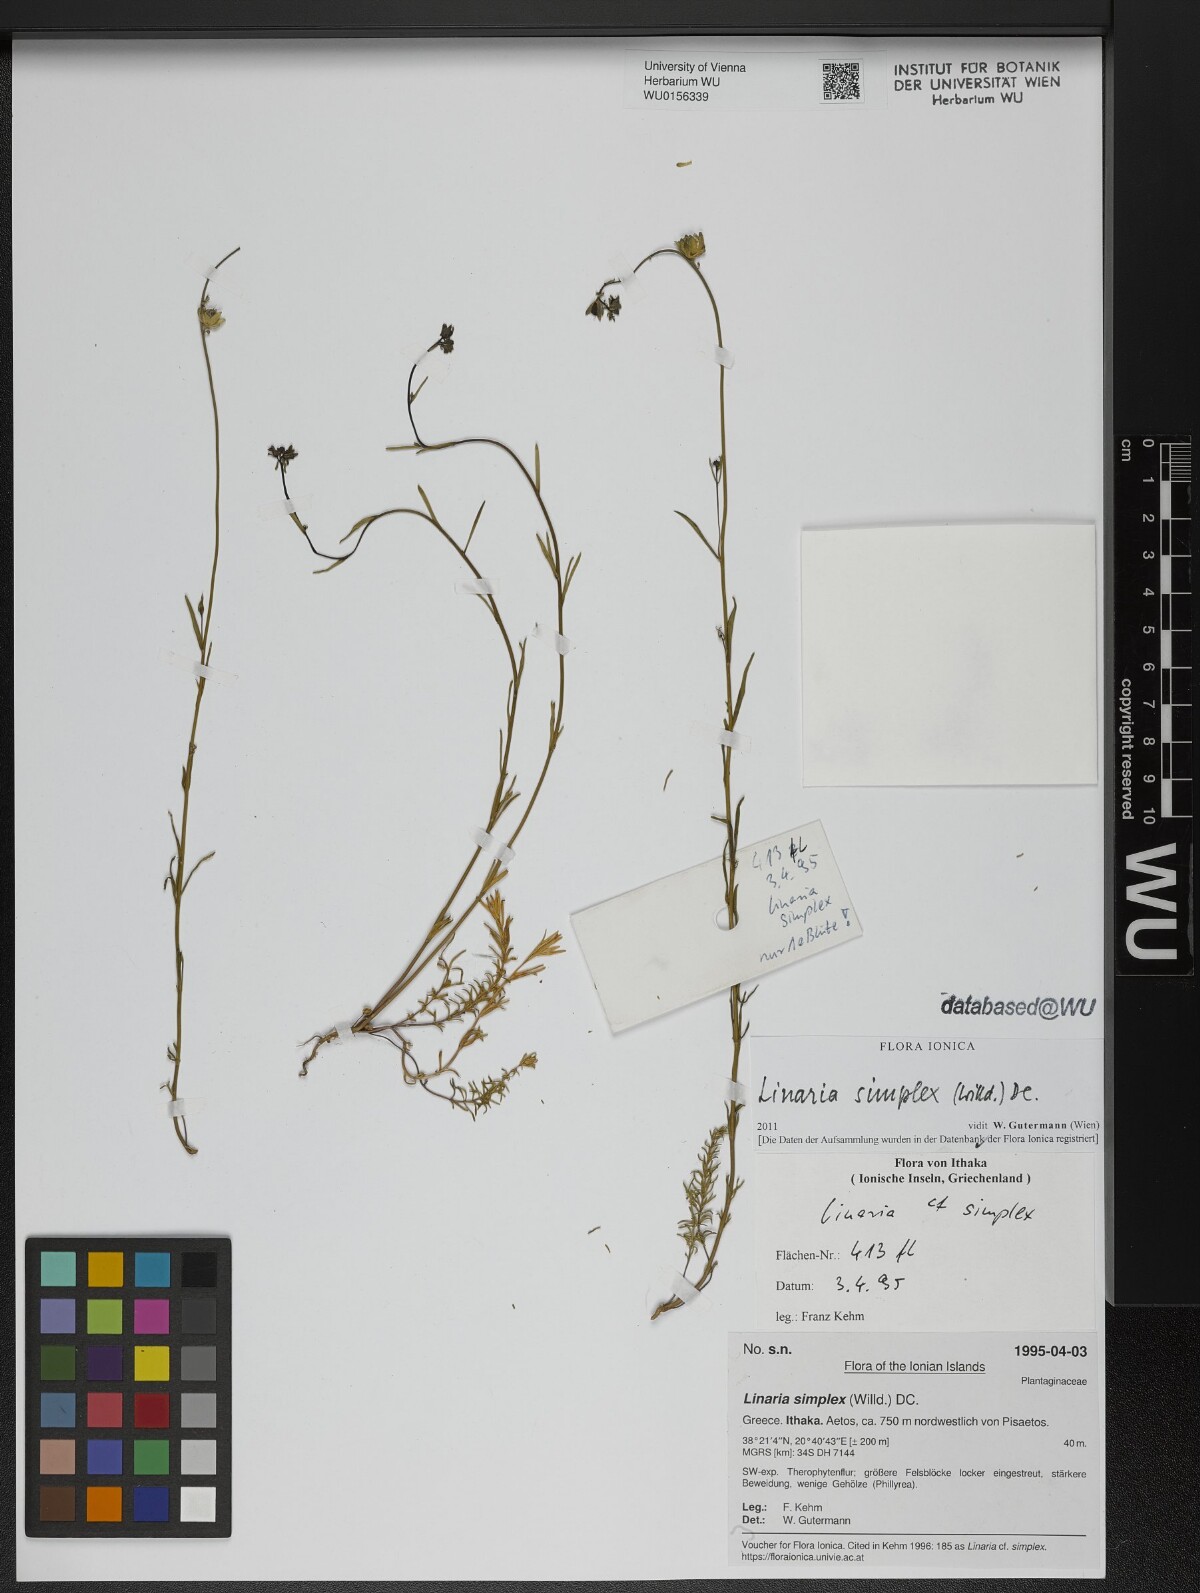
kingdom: Plantae
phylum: Tracheophyta
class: Magnoliopsida
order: Lamiales
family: Plantaginaceae
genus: Linaria
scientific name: Linaria simplex
